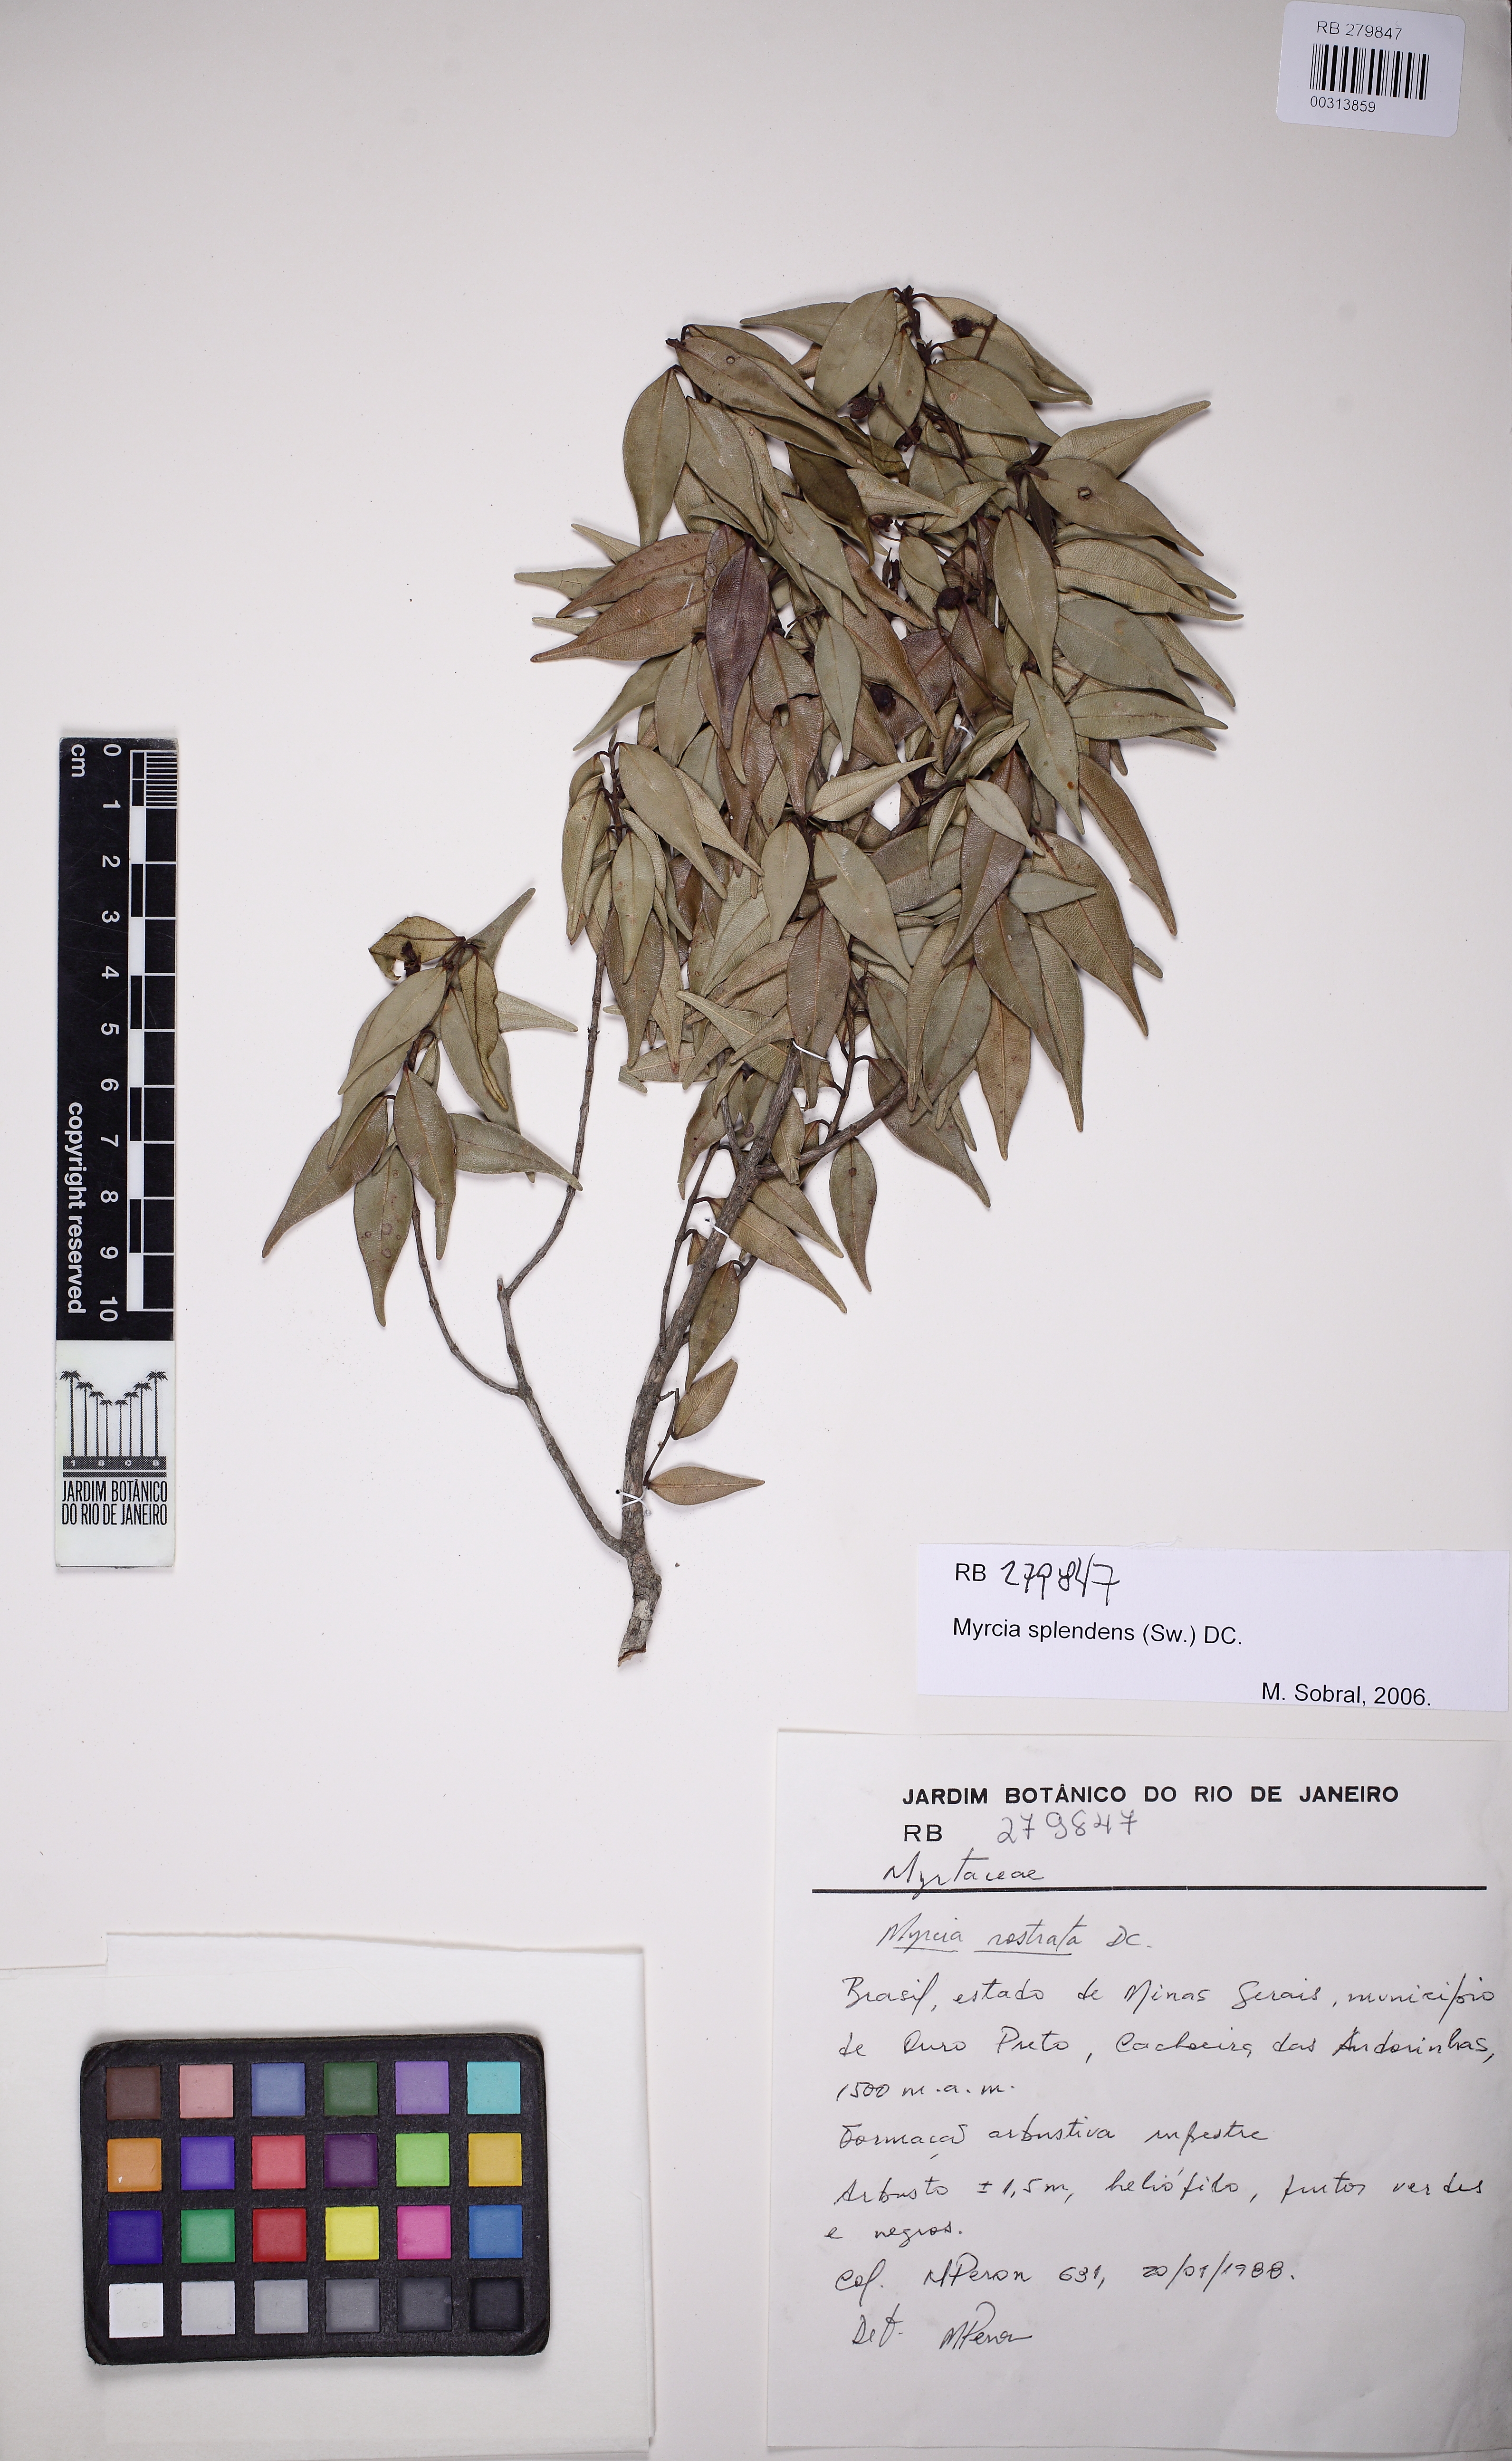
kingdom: Plantae
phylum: Tracheophyta
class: Magnoliopsida
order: Myrtales
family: Myrtaceae
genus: Myrcia
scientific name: Myrcia splendens
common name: Surinam cherry
